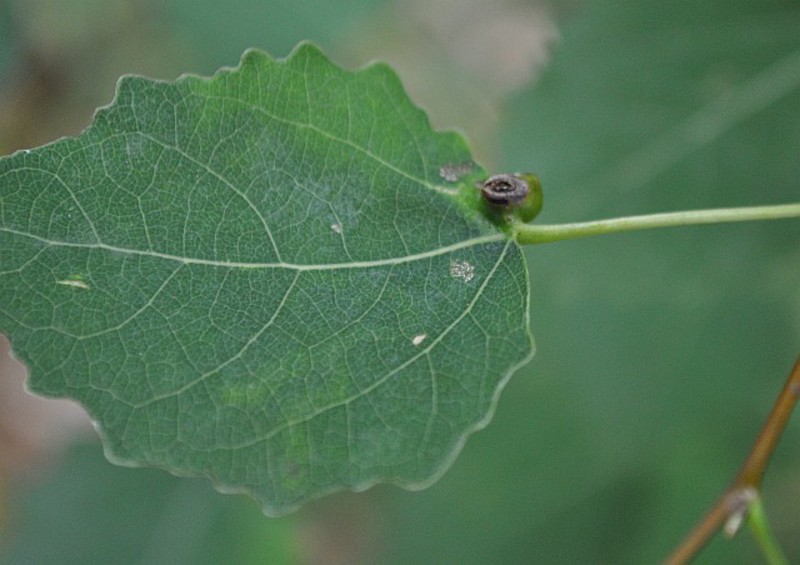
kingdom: Animalia
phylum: Arthropoda
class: Insecta
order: Diptera
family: Cecidomyiidae
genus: Harmandiola
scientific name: Harmandiola cavernosa
